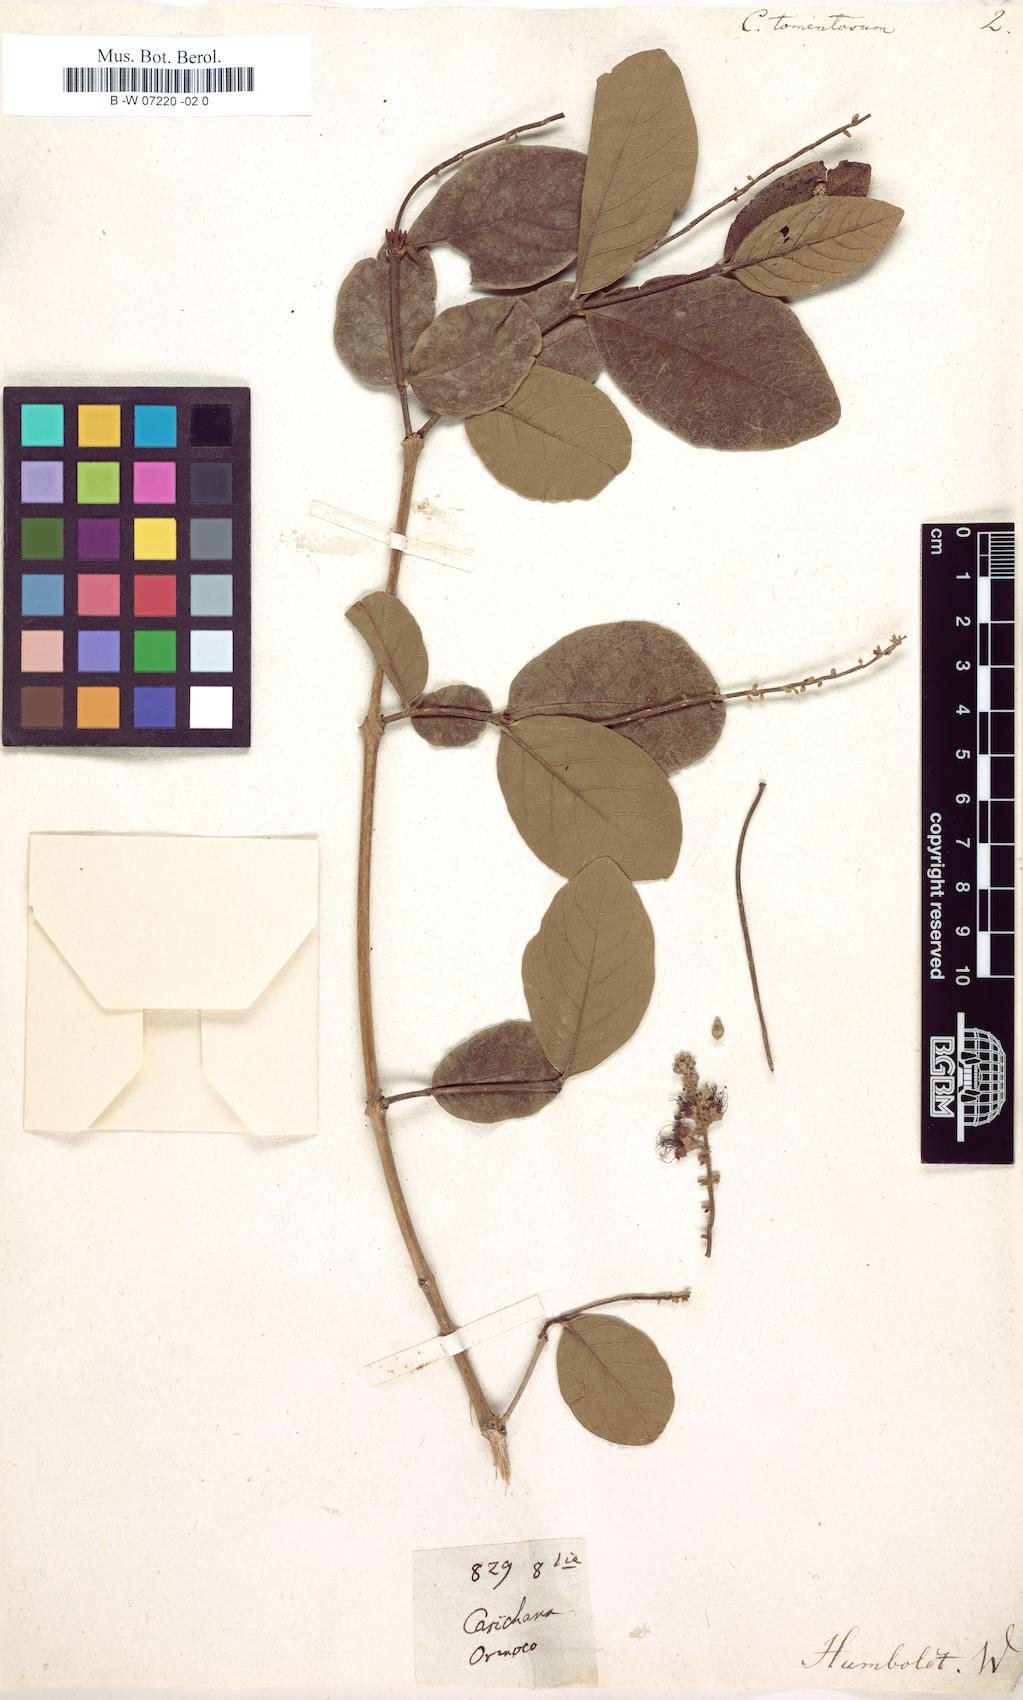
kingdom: Plantae
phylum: Tracheophyta
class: Magnoliopsida
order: Myrtales
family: Combretaceae
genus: Combretum
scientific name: Combretum frangulifolium
